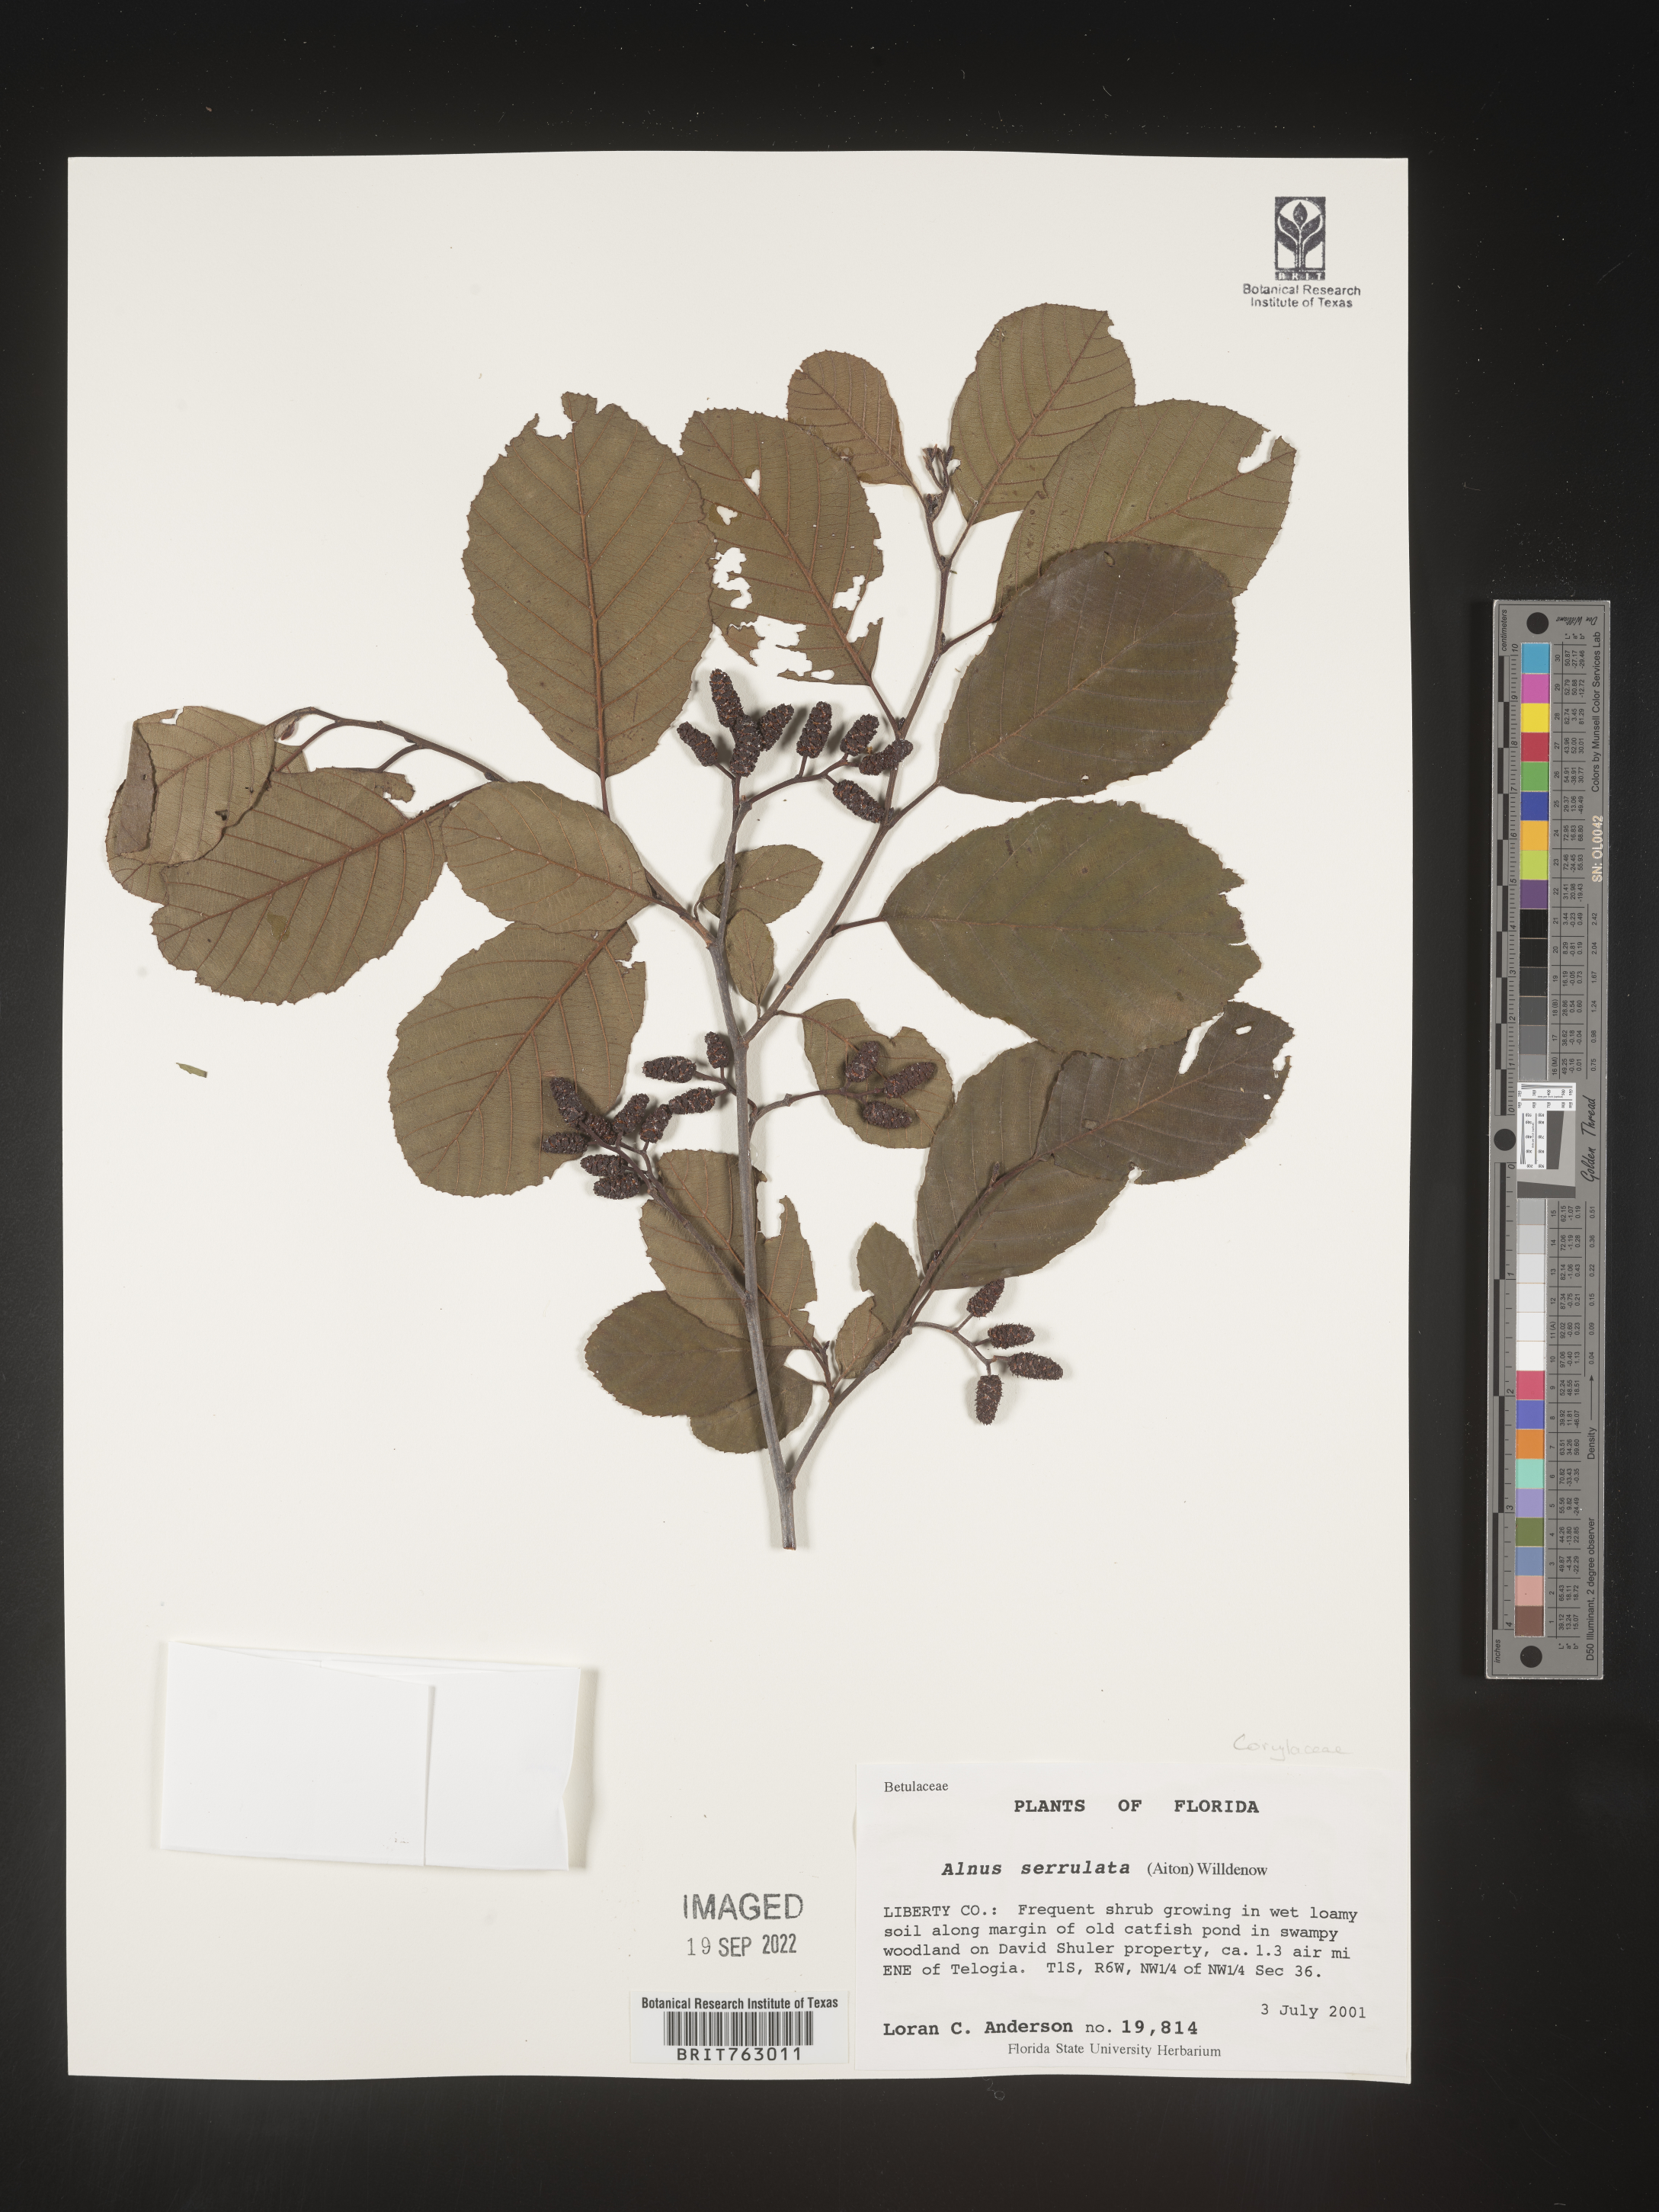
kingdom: Plantae
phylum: Tracheophyta
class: Magnoliopsida
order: Fagales
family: Betulaceae
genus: Alnus
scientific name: Alnus serrulata
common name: Hazel alder
